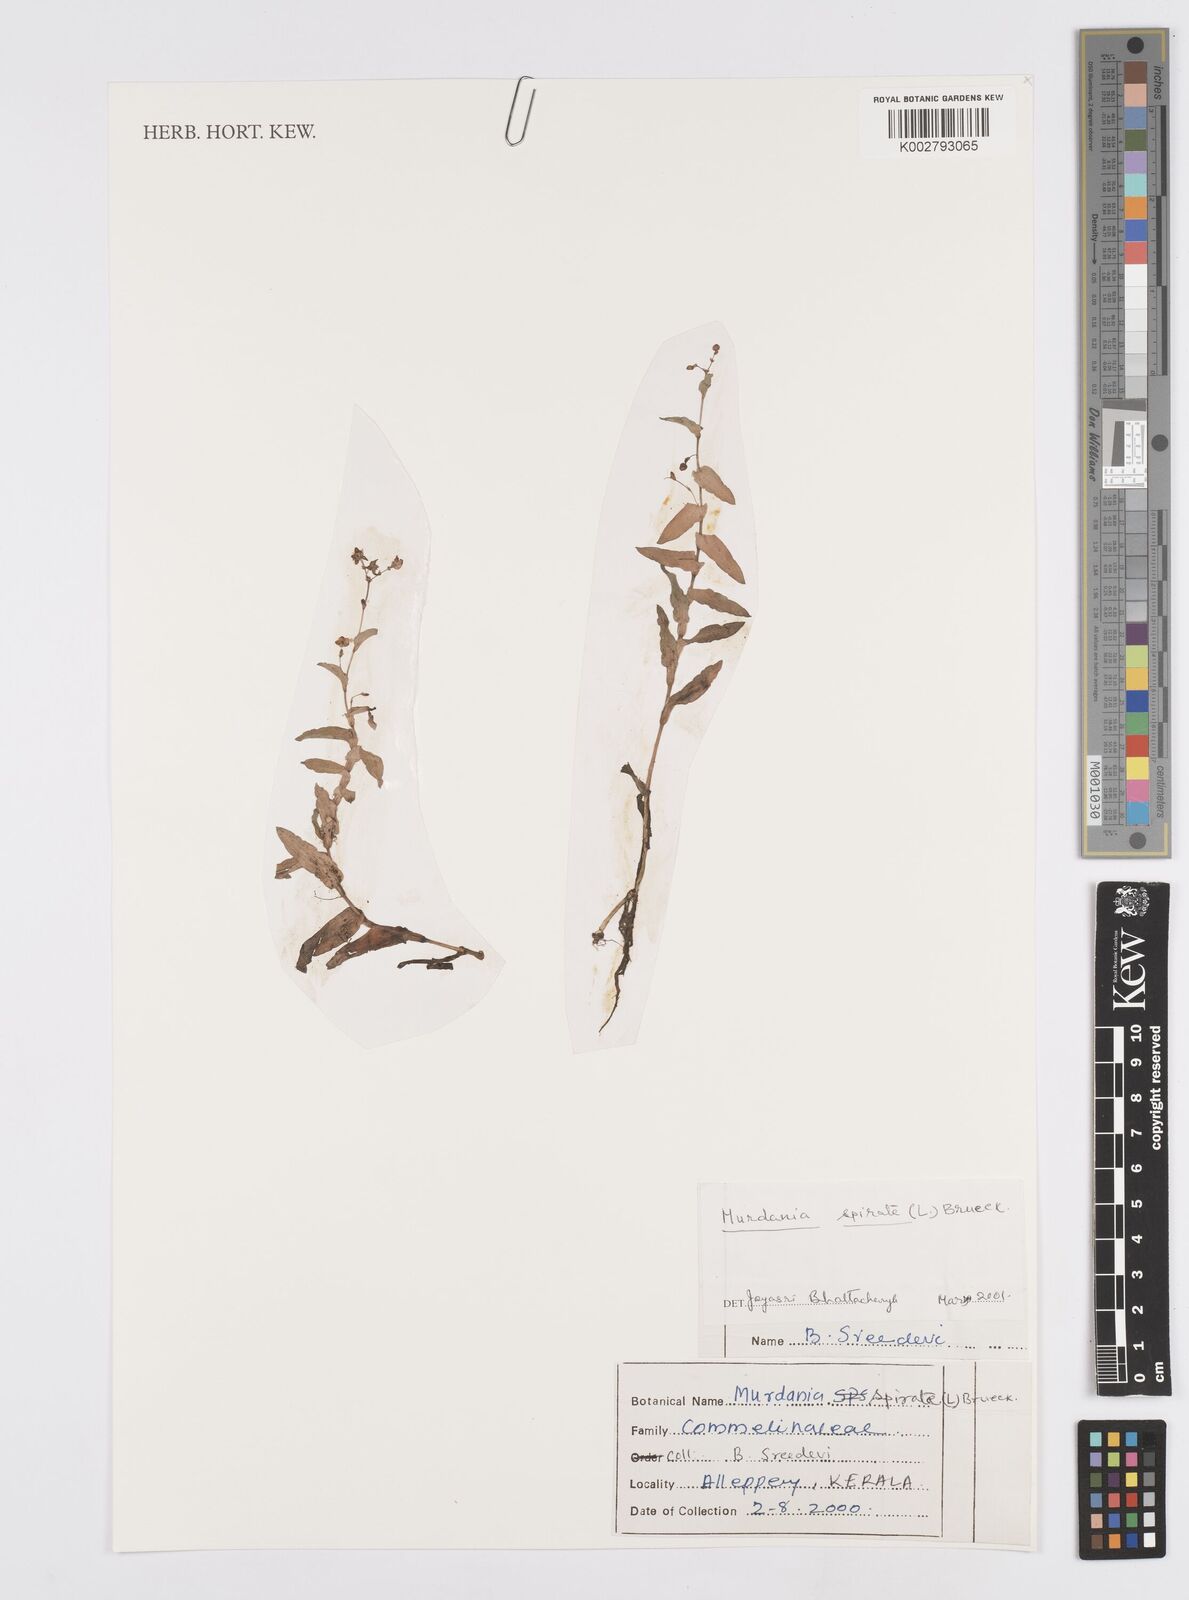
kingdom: Plantae
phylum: Tracheophyta
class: Liliopsida
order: Commelinales
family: Commelinaceae
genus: Murdannia
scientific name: Murdannia spirata
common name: Asiatic dewflower
